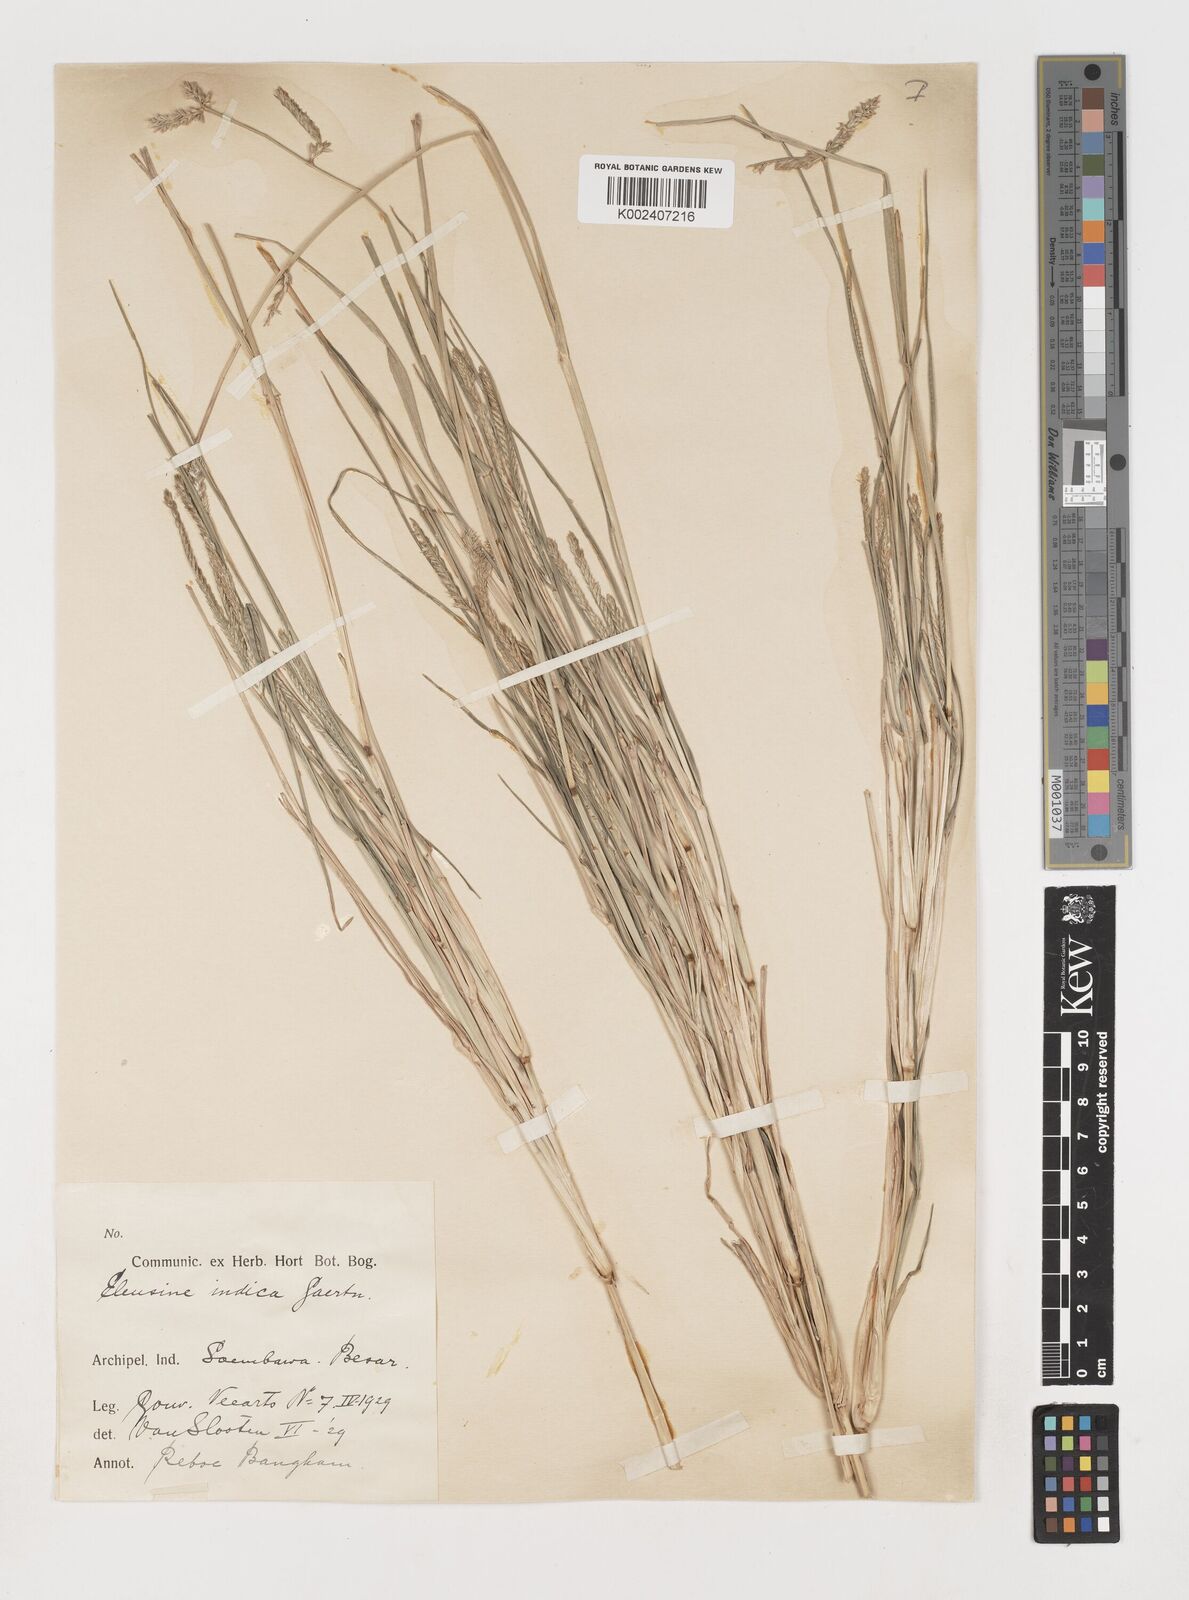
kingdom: Plantae
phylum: Tracheophyta
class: Liliopsida
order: Poales
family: Poaceae
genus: Eleusine
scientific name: Eleusine indica
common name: Yard-grass
